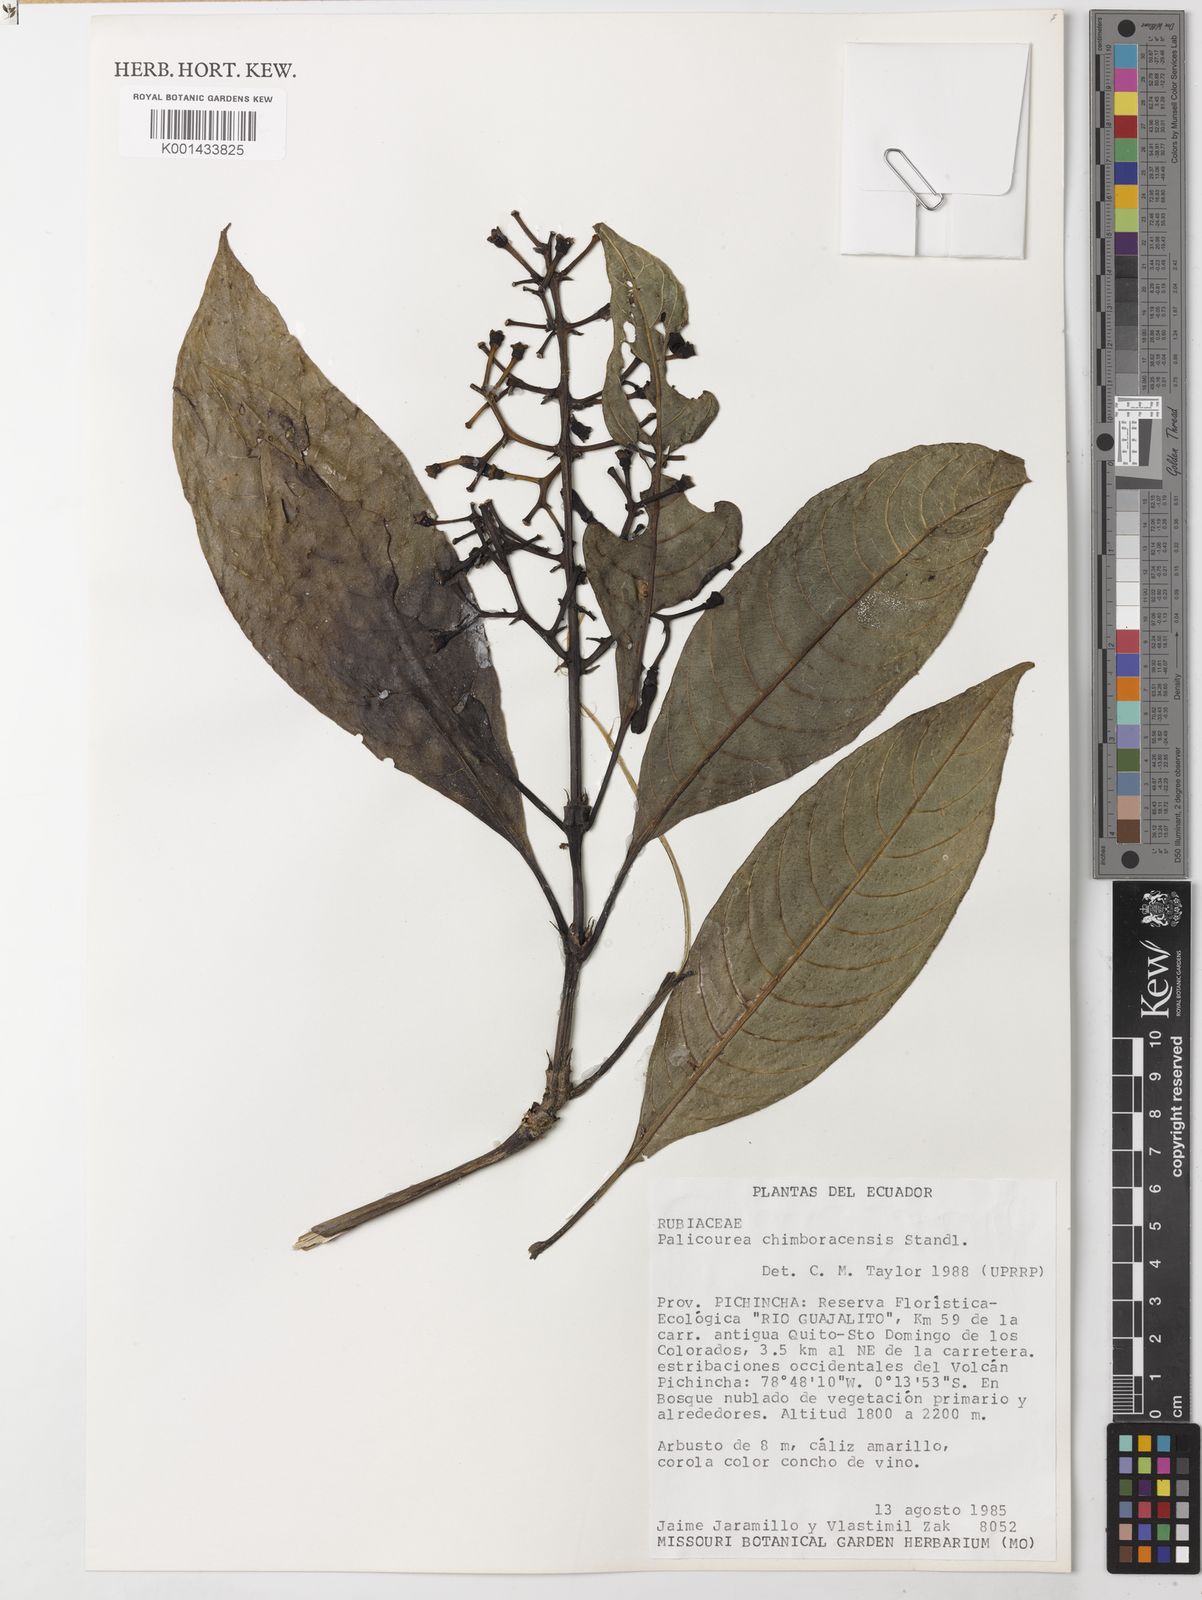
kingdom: Plantae
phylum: Tracheophyta
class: Magnoliopsida
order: Gentianales
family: Rubiaceae
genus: Palicourea
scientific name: Palicourea chimboracensis
